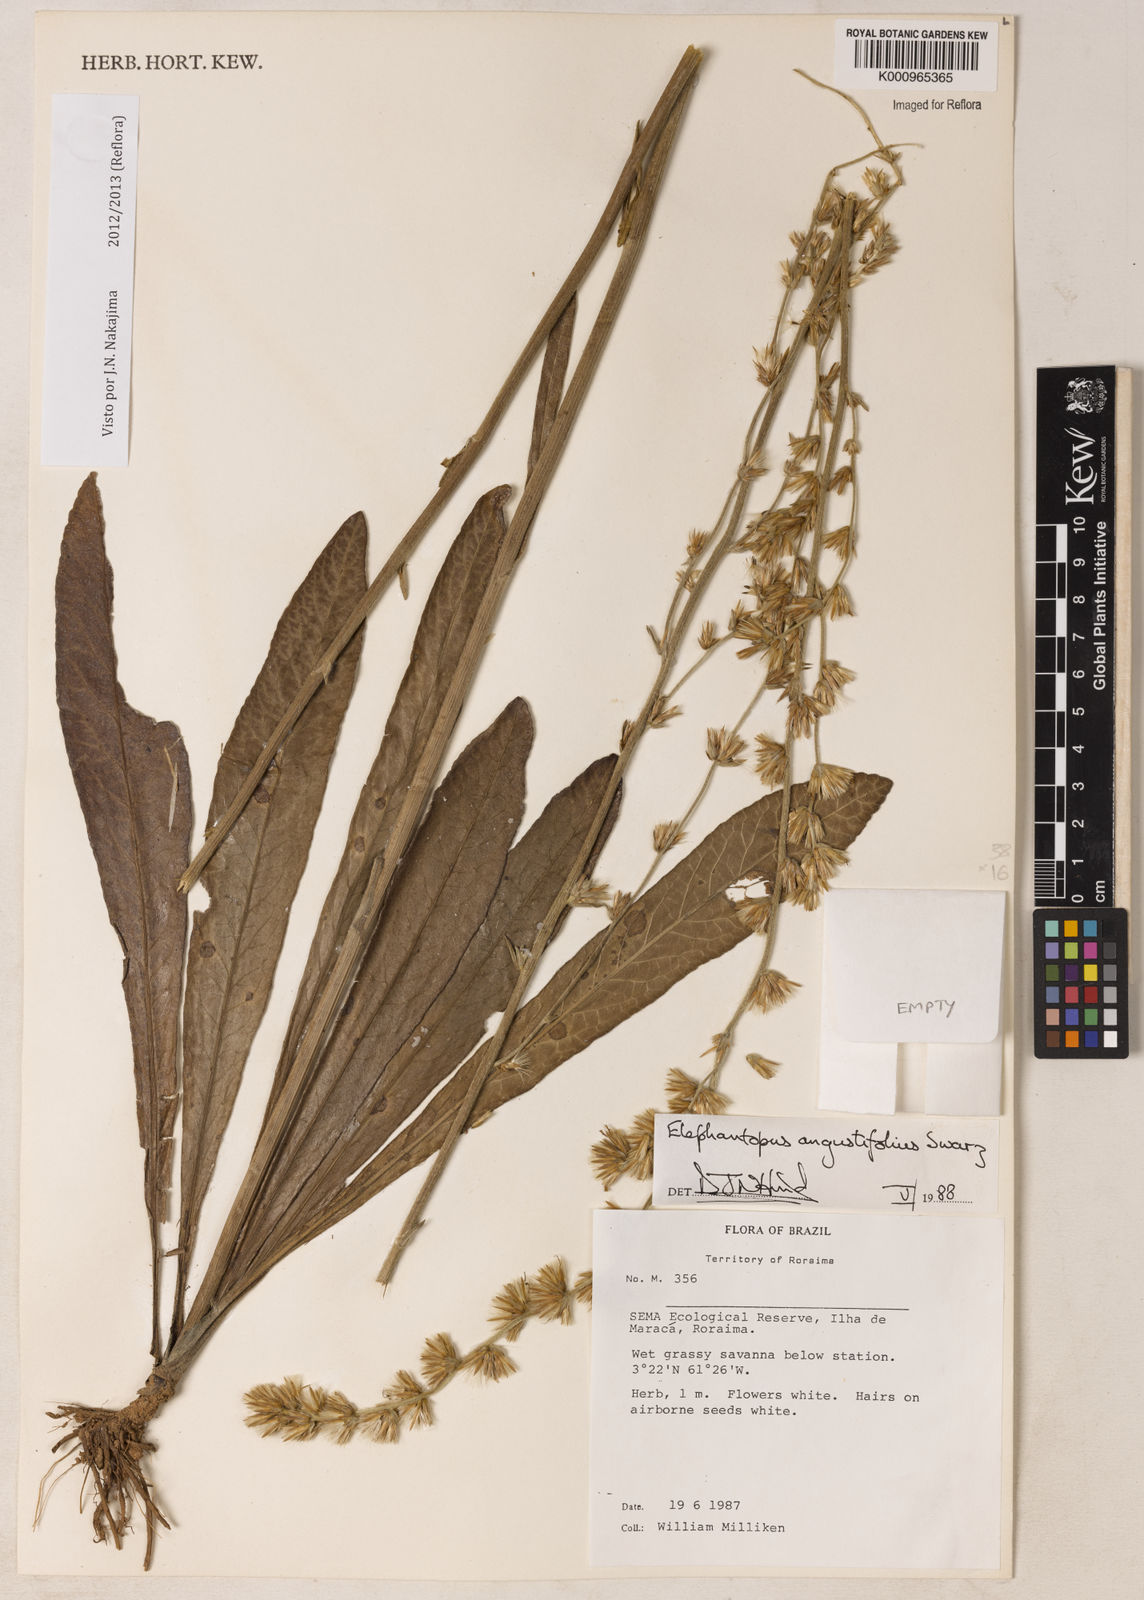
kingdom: Plantae
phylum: Tracheophyta
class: Magnoliopsida
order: Asterales
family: Asteraceae
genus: Orthopappus
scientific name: Orthopappus angustifolius
